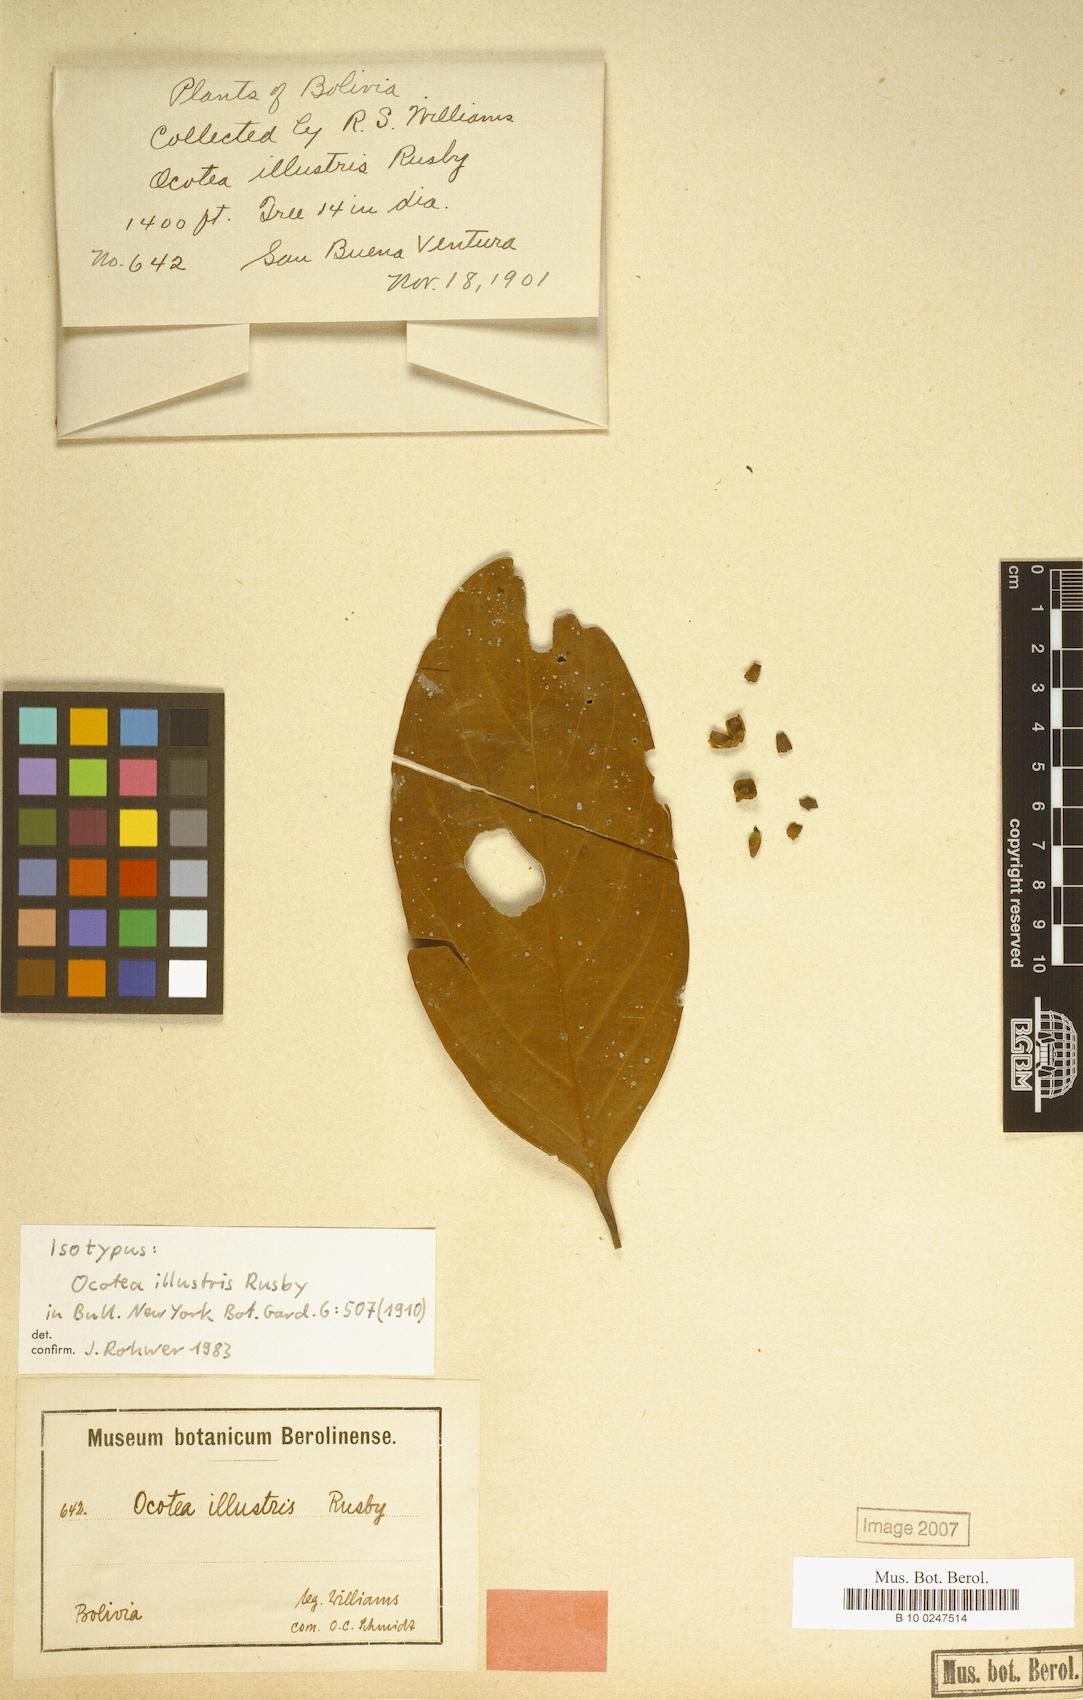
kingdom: Plantae
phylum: Tracheophyta
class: Magnoliopsida
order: Laurales
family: Lauraceae
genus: Ocotea
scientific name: Ocotea illustris
